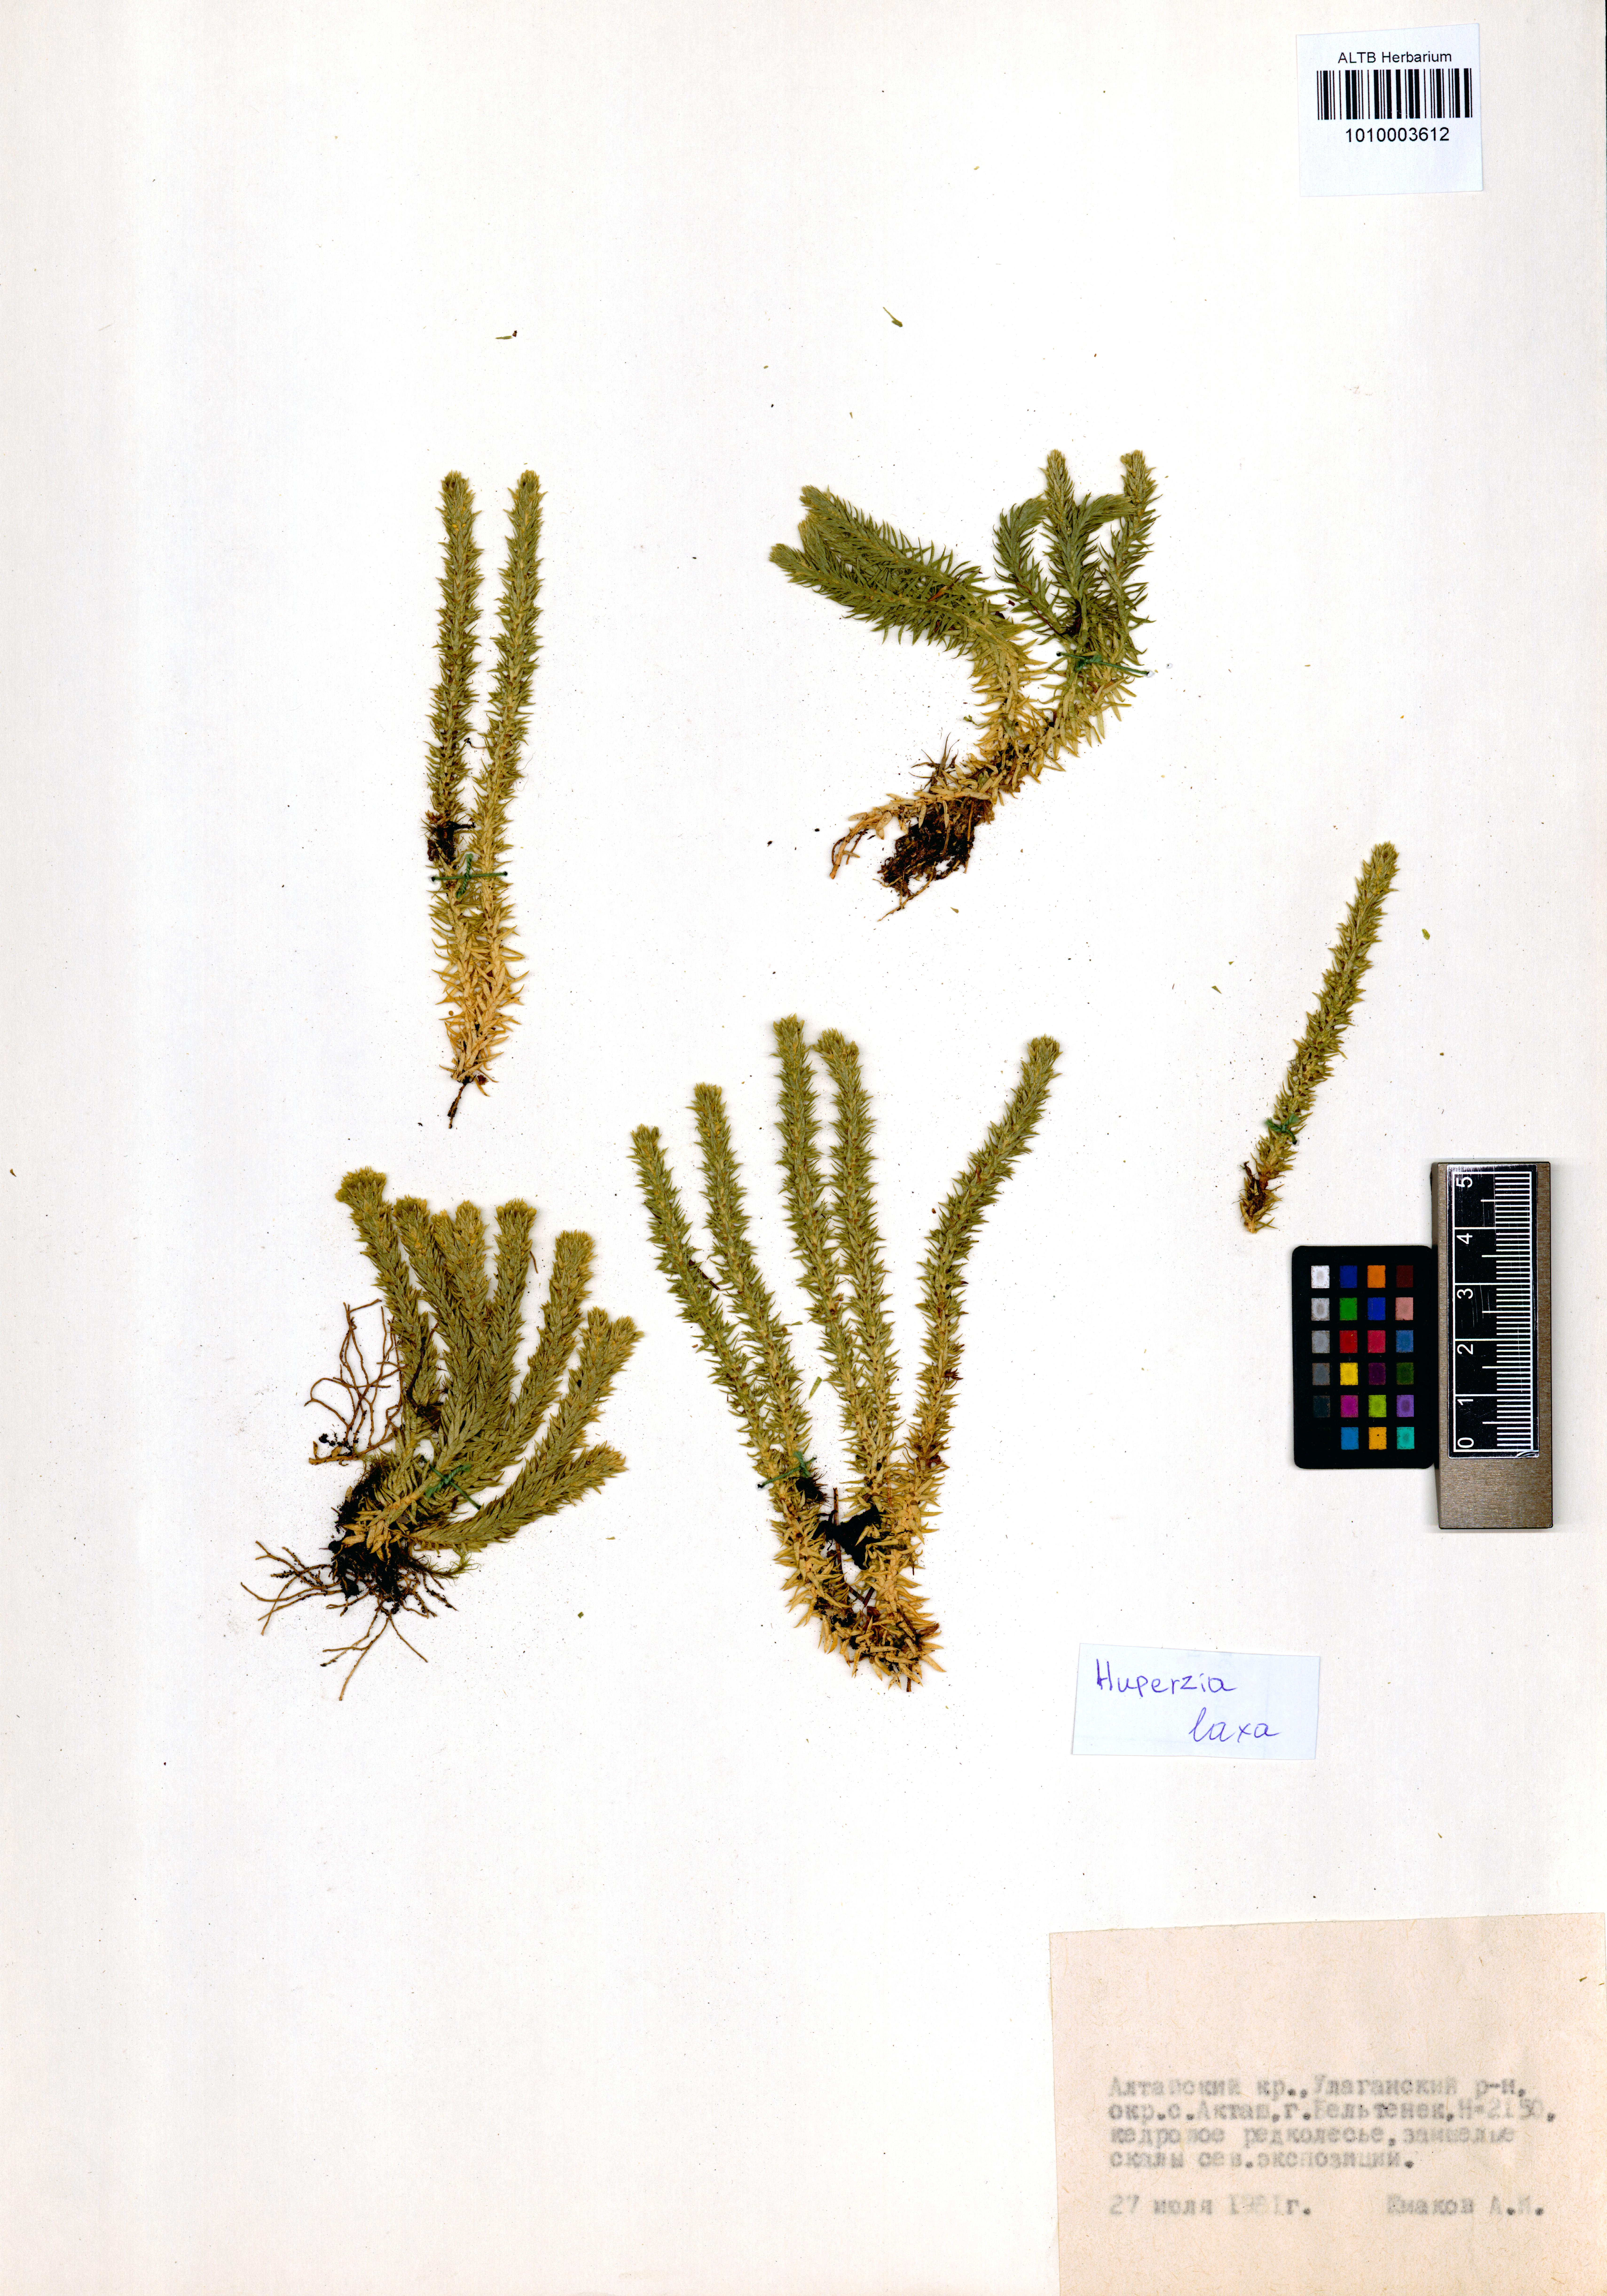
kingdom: Plantae
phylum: Tracheophyta
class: Lycopodiopsida
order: Lycopodiales
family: Lycopodiaceae
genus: Phlegmariurus
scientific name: Phlegmariurus carinatus
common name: Keeled tassel-fern
